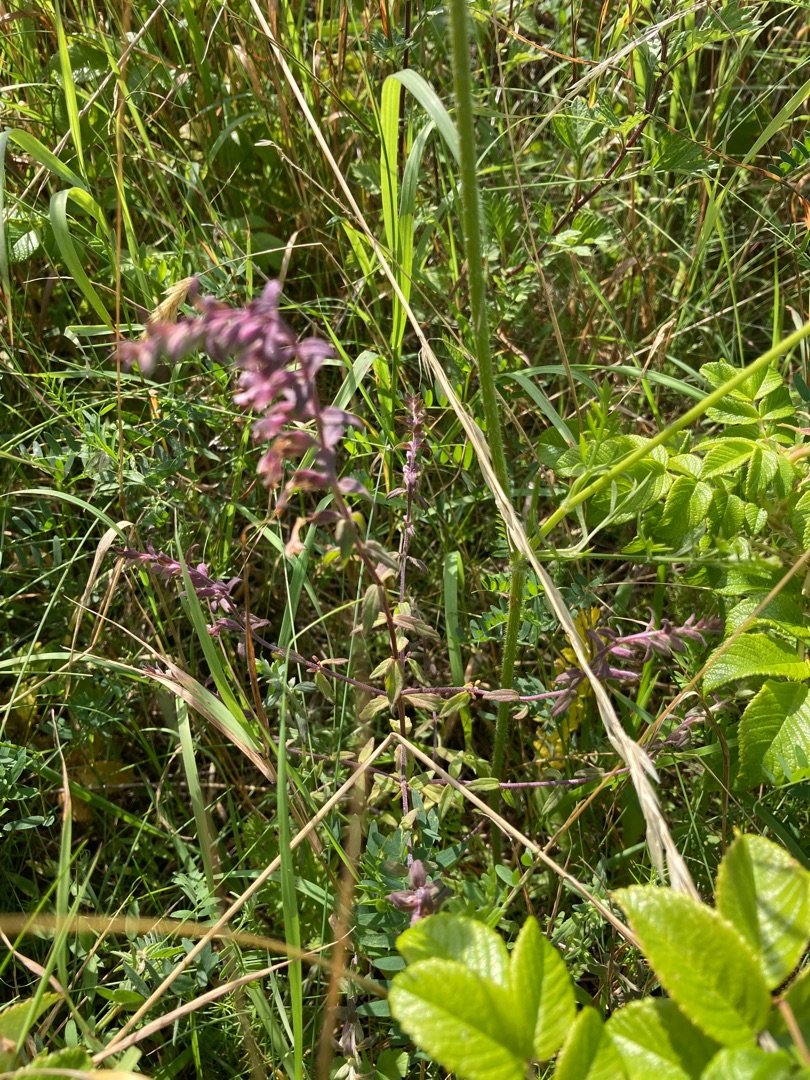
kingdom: Plantae
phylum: Tracheophyta
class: Magnoliopsida
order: Lamiales
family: Orobanchaceae
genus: Odontites
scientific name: Odontites vulgaris
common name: Høst-rødtop
